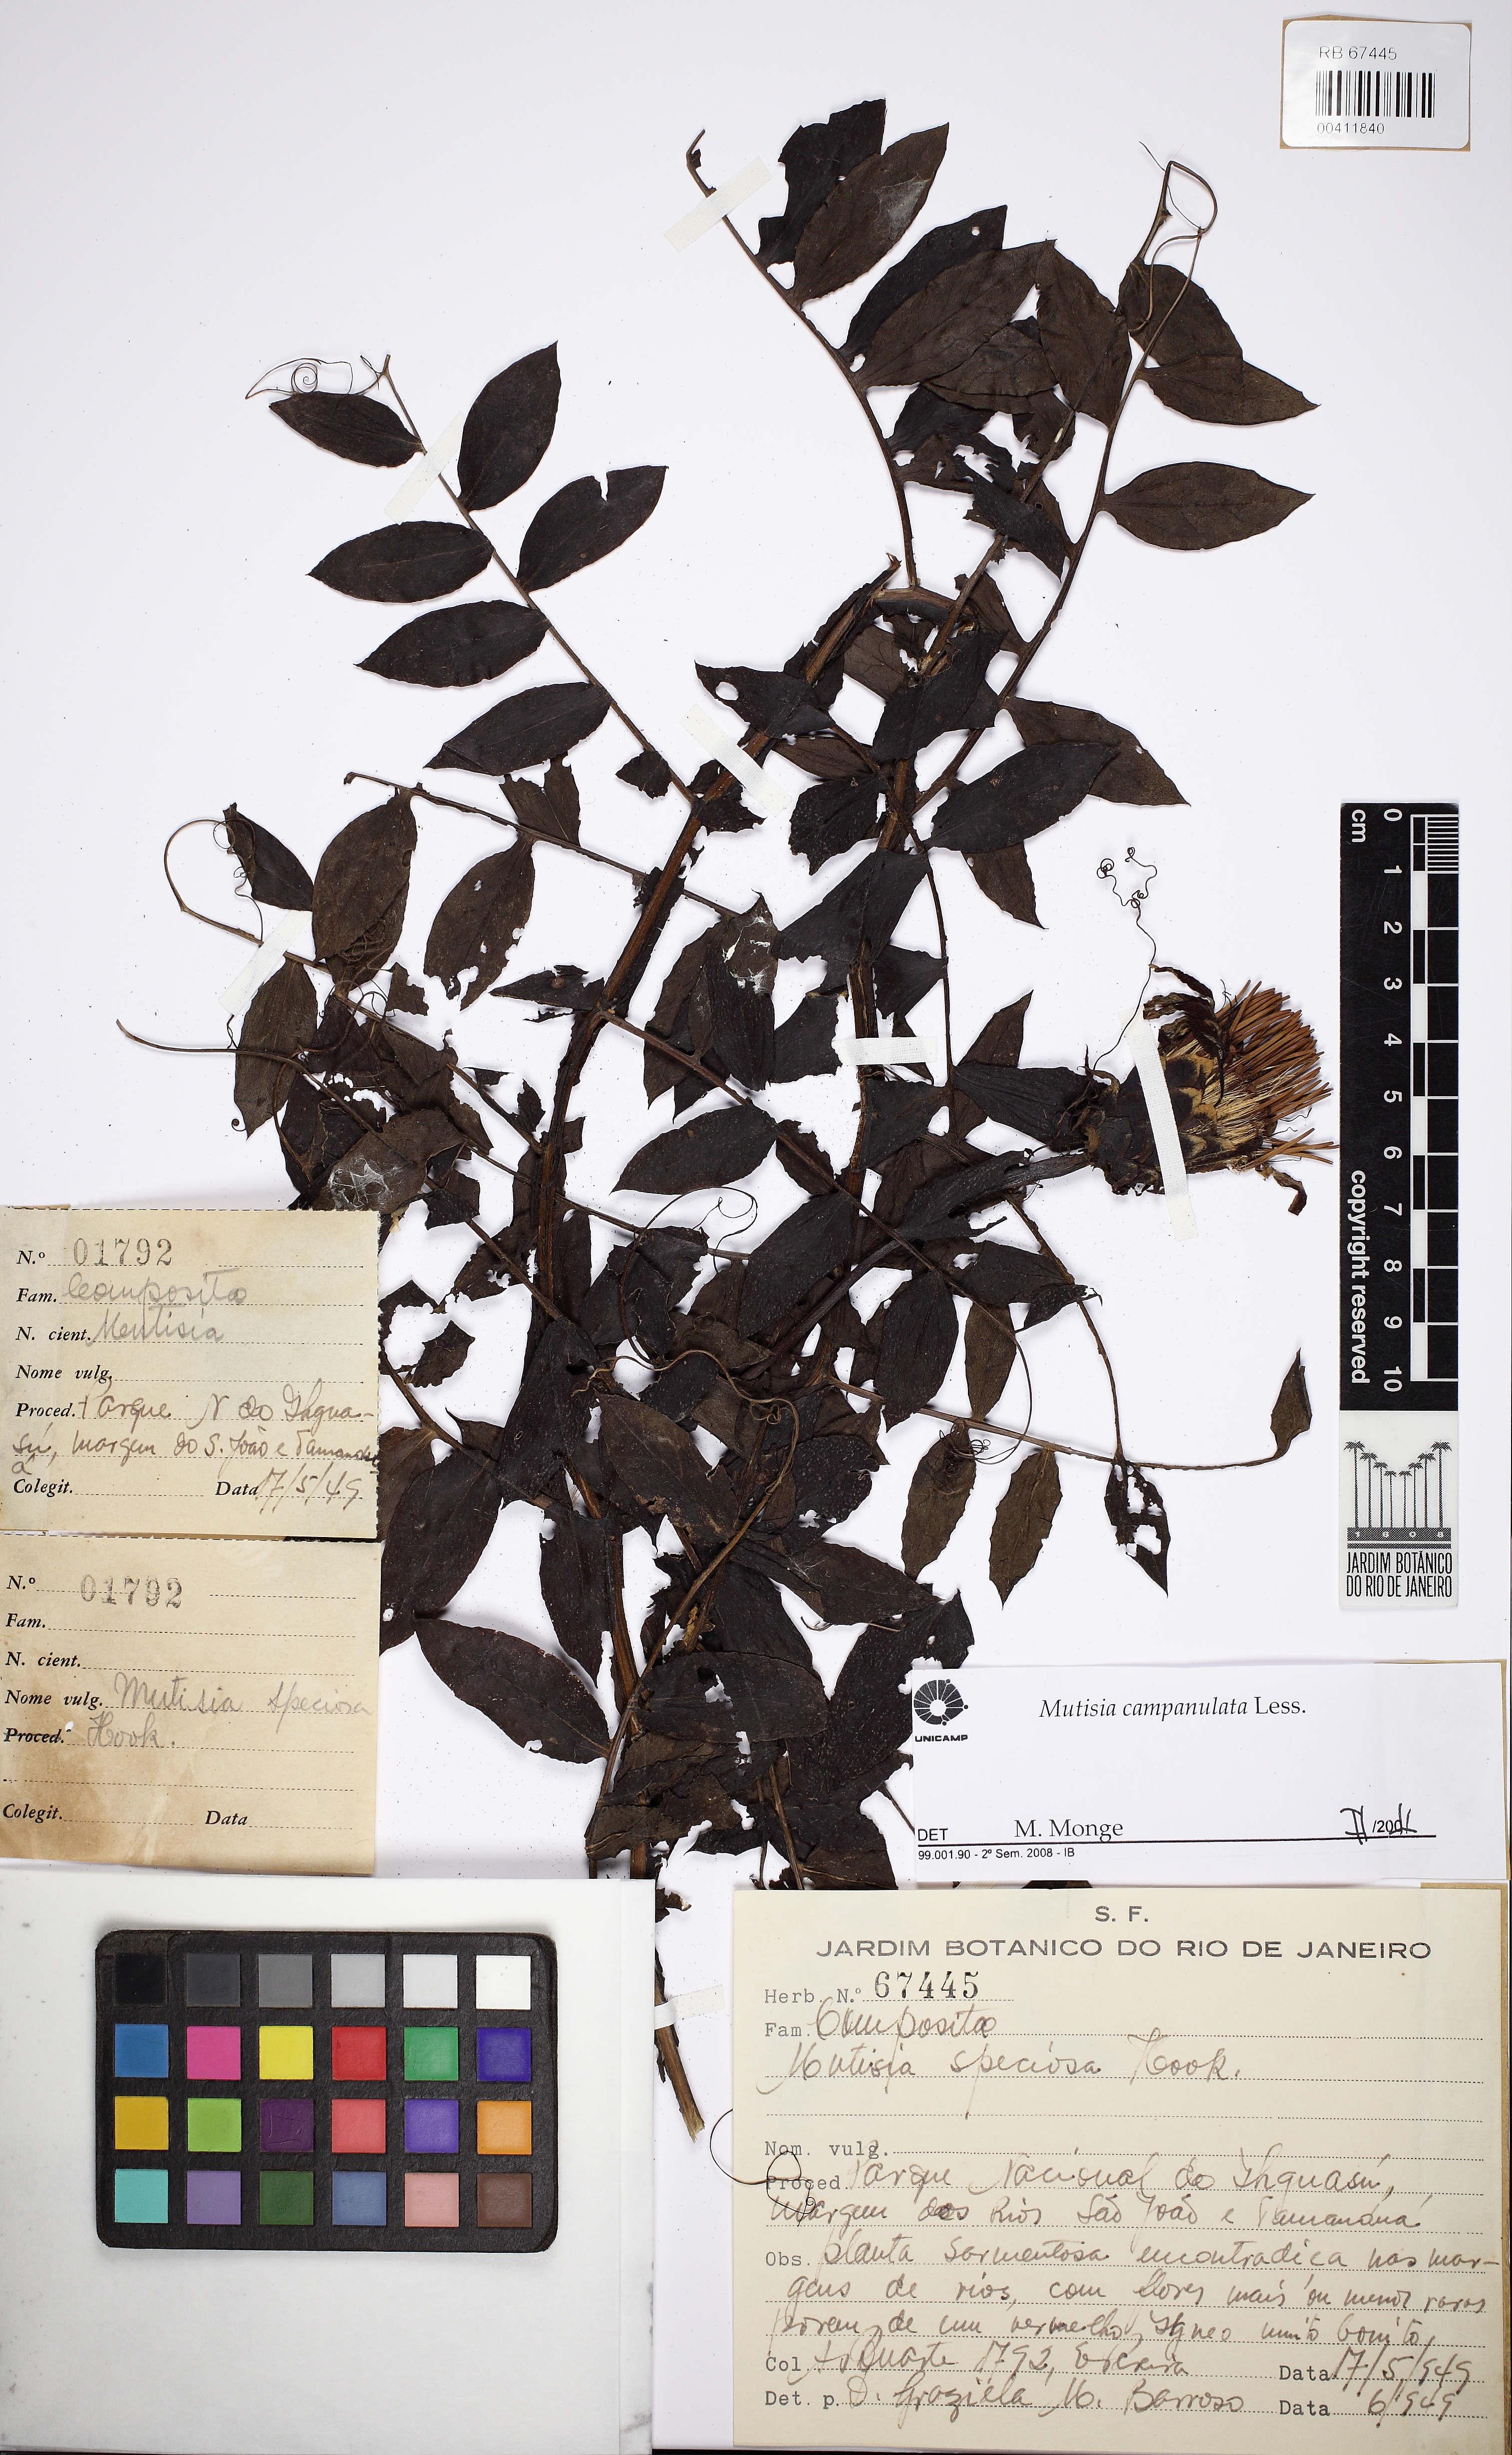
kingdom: Plantae
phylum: Tracheophyta
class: Magnoliopsida
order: Asterales
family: Asteraceae
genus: Mutisia
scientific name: Mutisia speciosa
